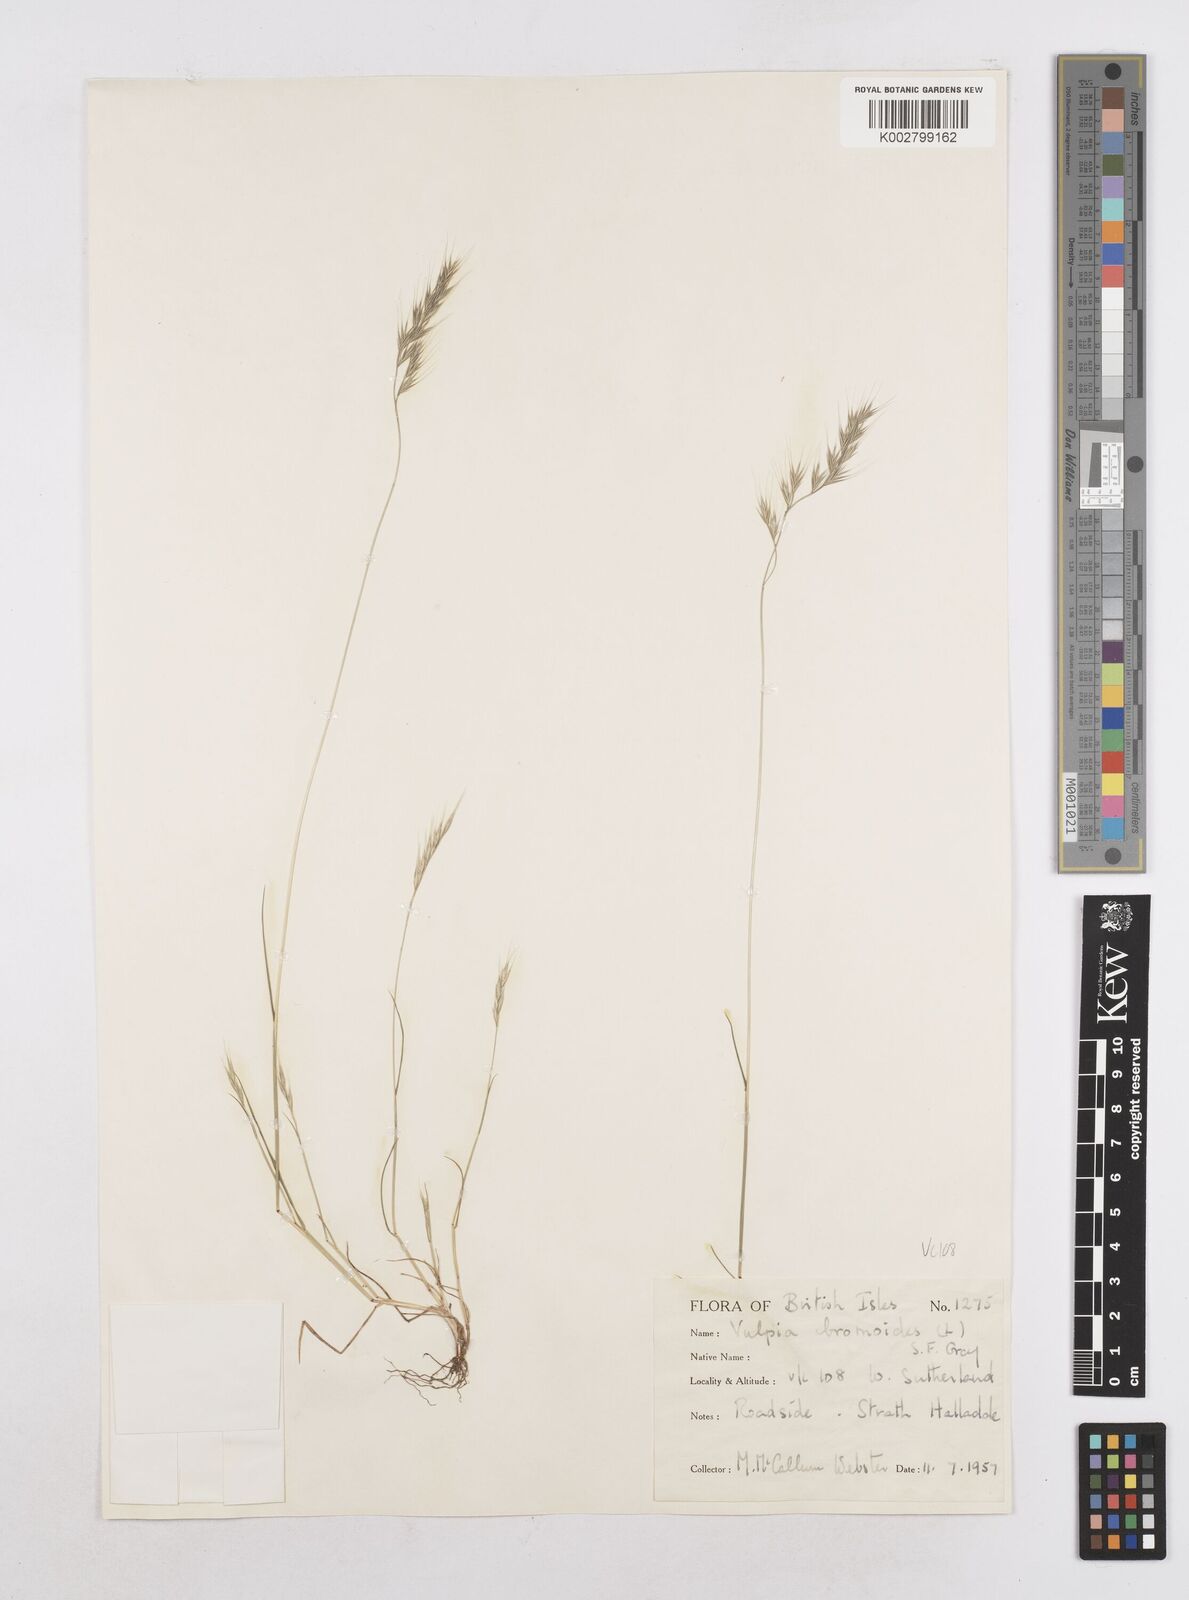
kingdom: Plantae
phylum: Tracheophyta
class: Liliopsida
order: Poales
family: Poaceae
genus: Festuca
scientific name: Festuca bromoides
